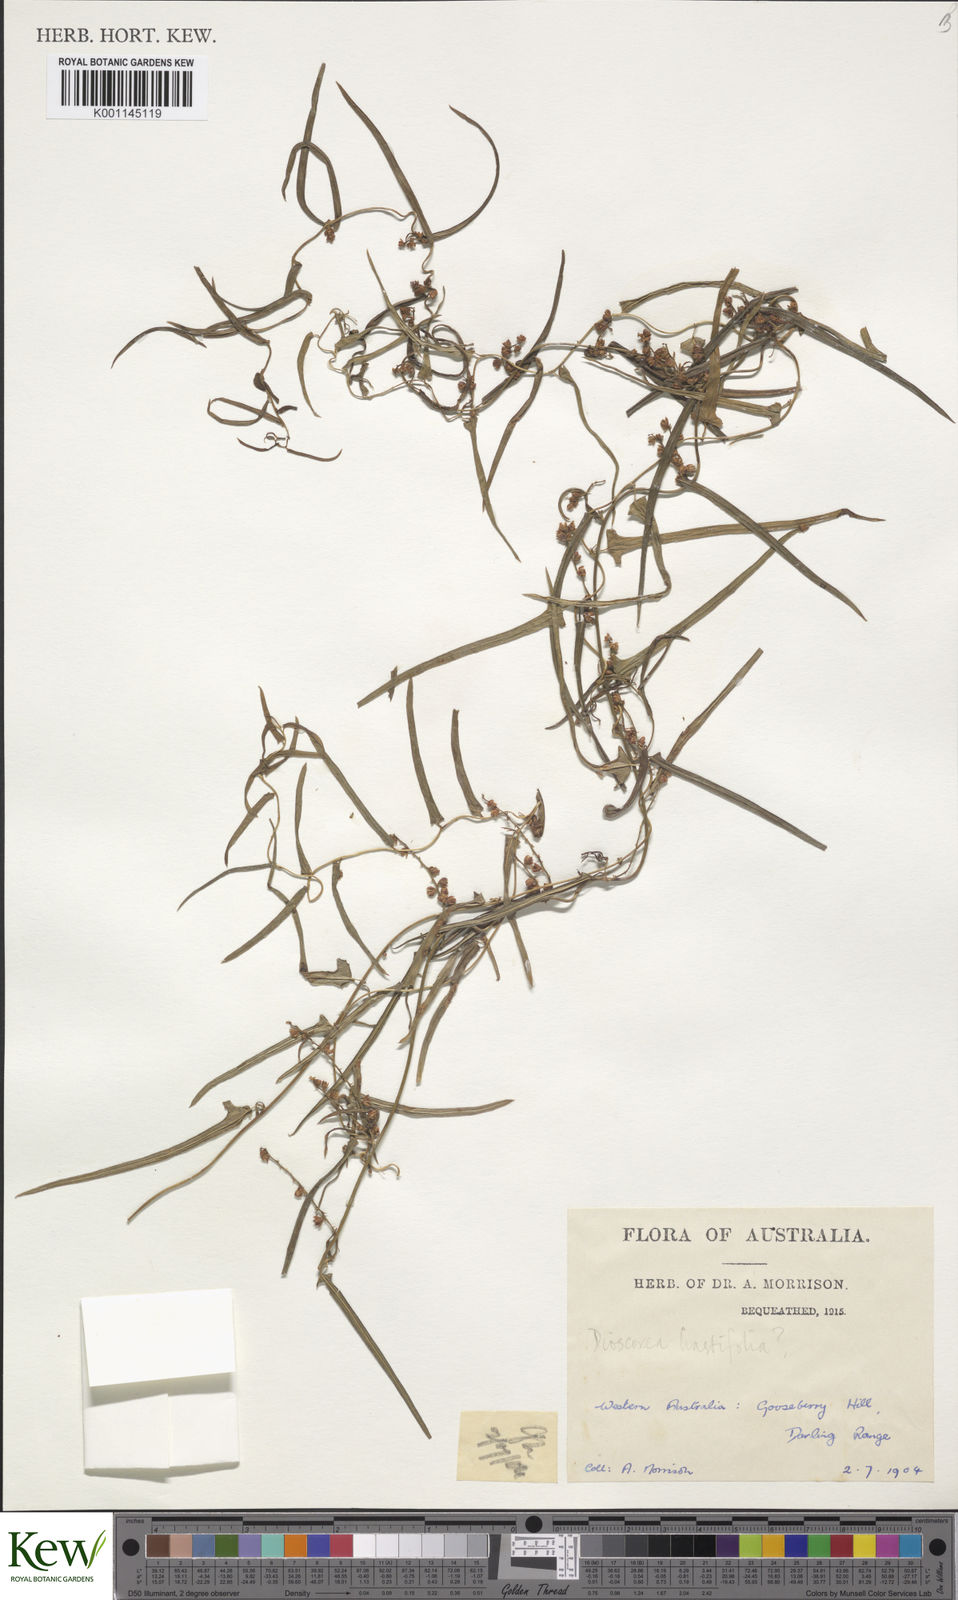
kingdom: Plantae
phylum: Tracheophyta
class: Liliopsida
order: Dioscoreales
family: Dioscoreaceae
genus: Dioscorea
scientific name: Dioscorea hastifolia
